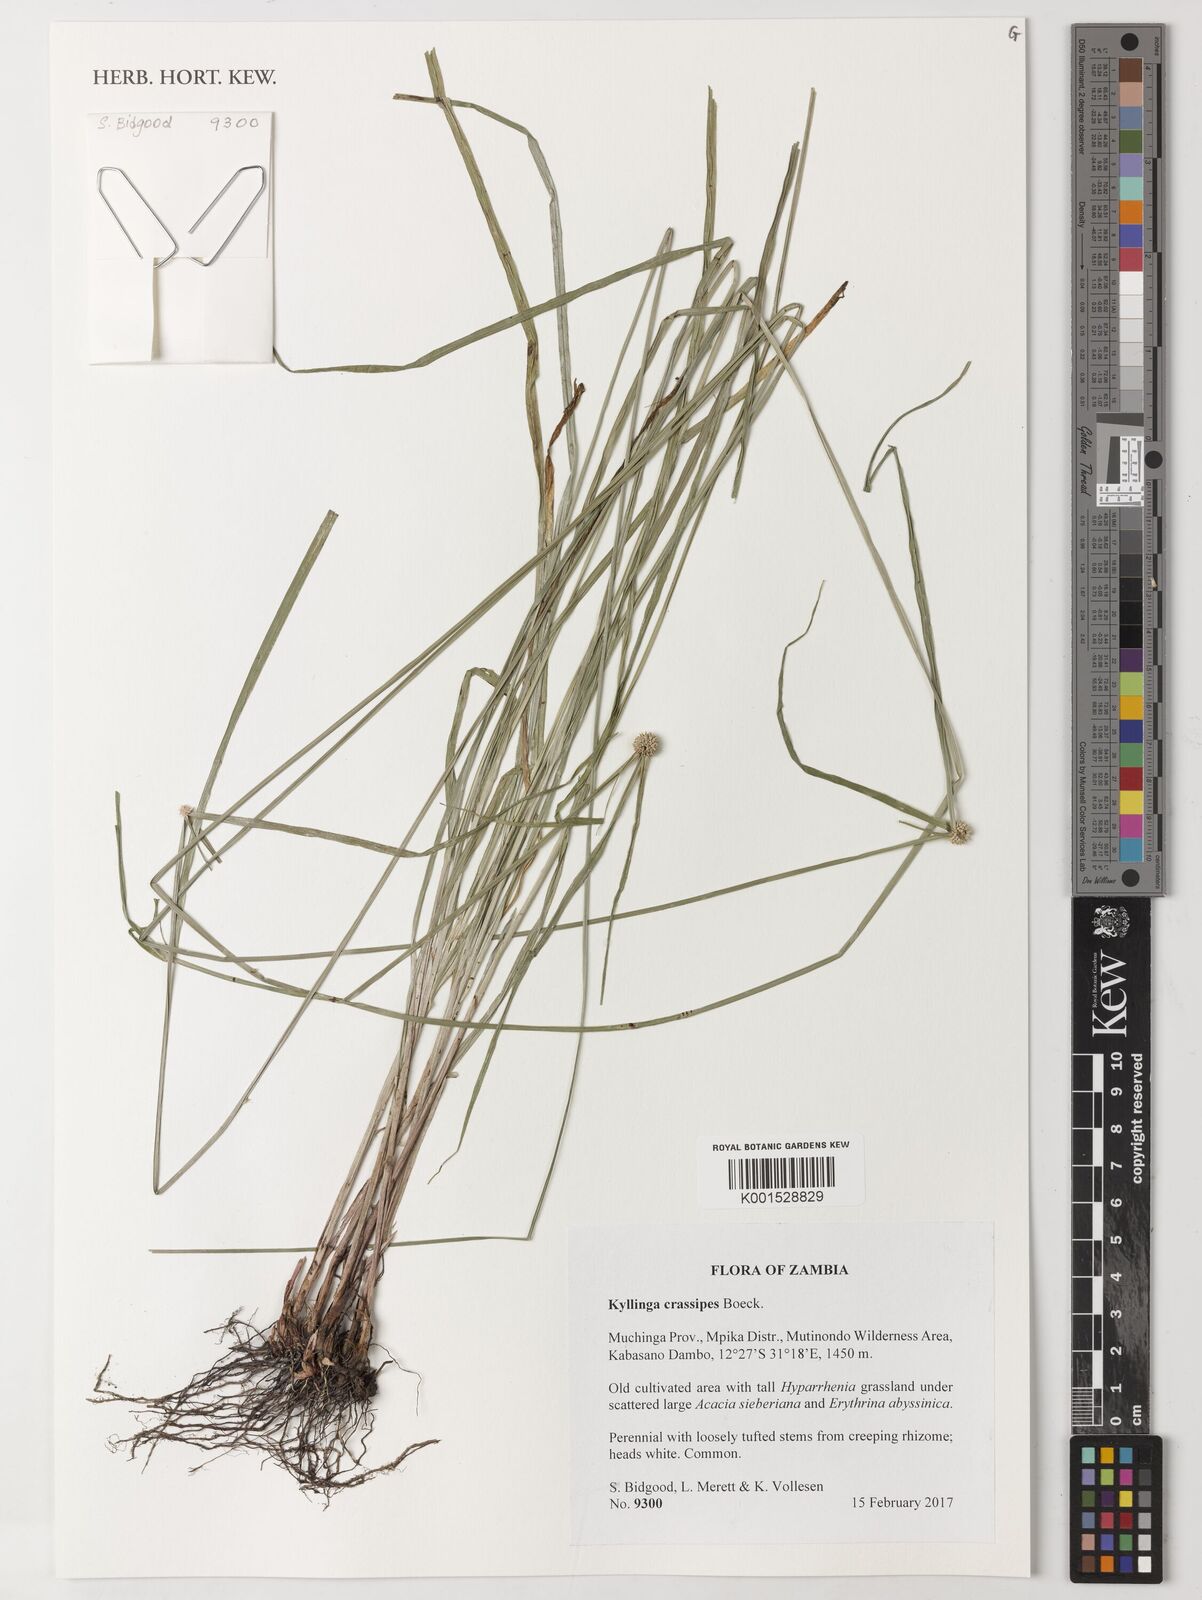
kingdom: Plantae
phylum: Tracheophyta
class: Liliopsida
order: Poales
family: Cyperaceae
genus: Cyperus
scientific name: Cyperus bulbipes
